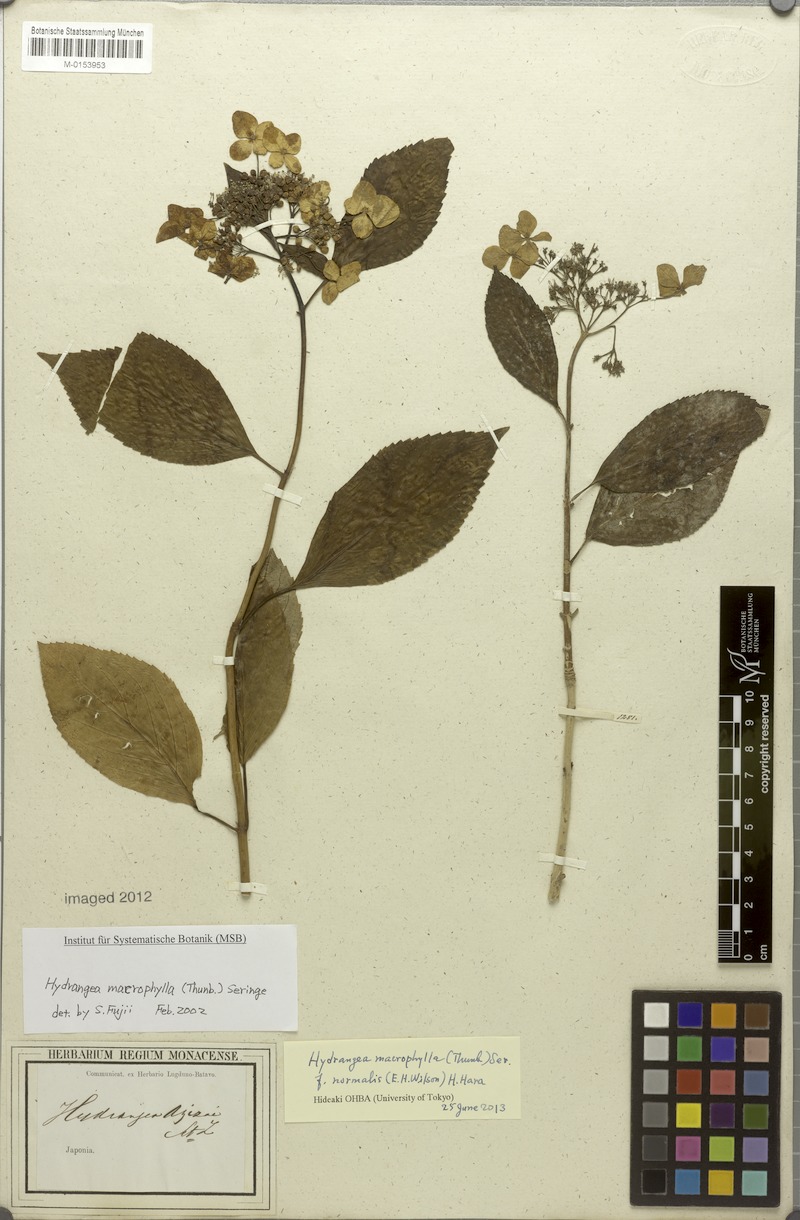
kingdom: Plantae
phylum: Tracheophyta
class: Magnoliopsida
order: Cornales
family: Hydrangeaceae
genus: Hydrangea
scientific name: Hydrangea macrophylla
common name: Hydrangea
